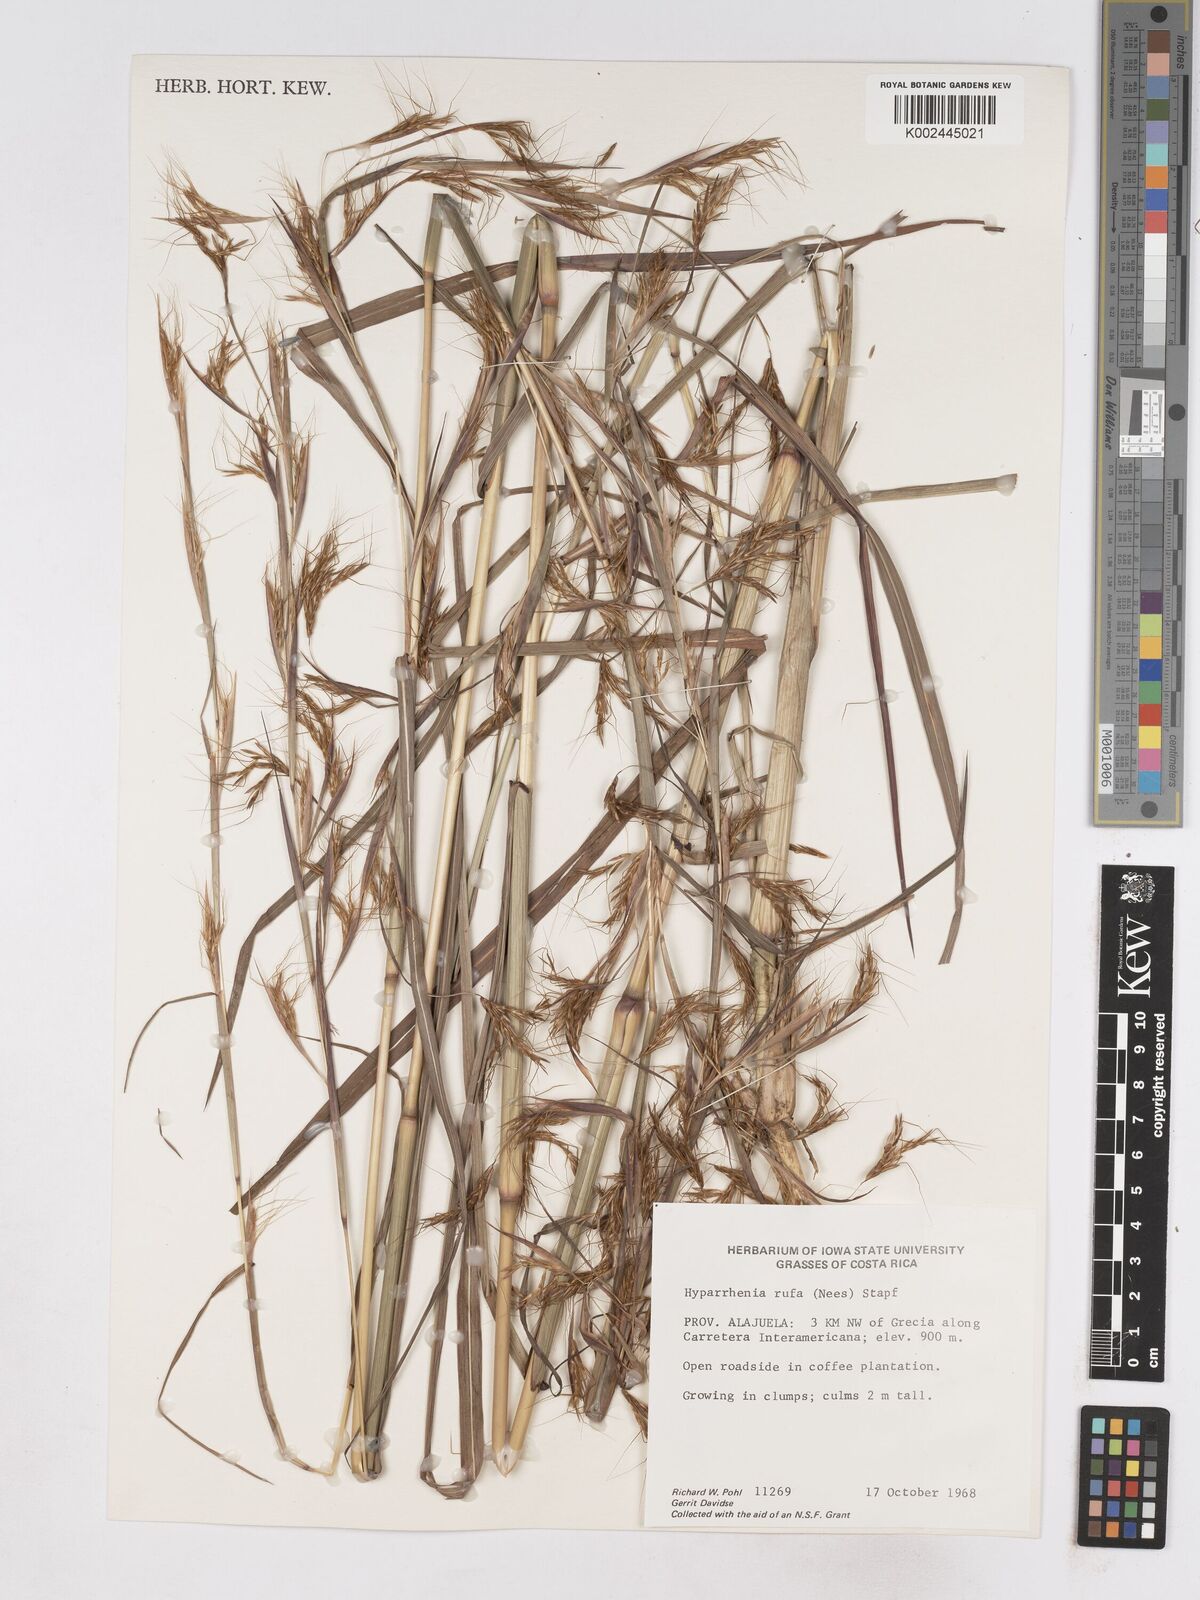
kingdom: Plantae
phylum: Tracheophyta
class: Liliopsida
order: Poales
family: Poaceae
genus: Hyparrhenia
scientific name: Hyparrhenia rufa
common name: Jaraguagrass
